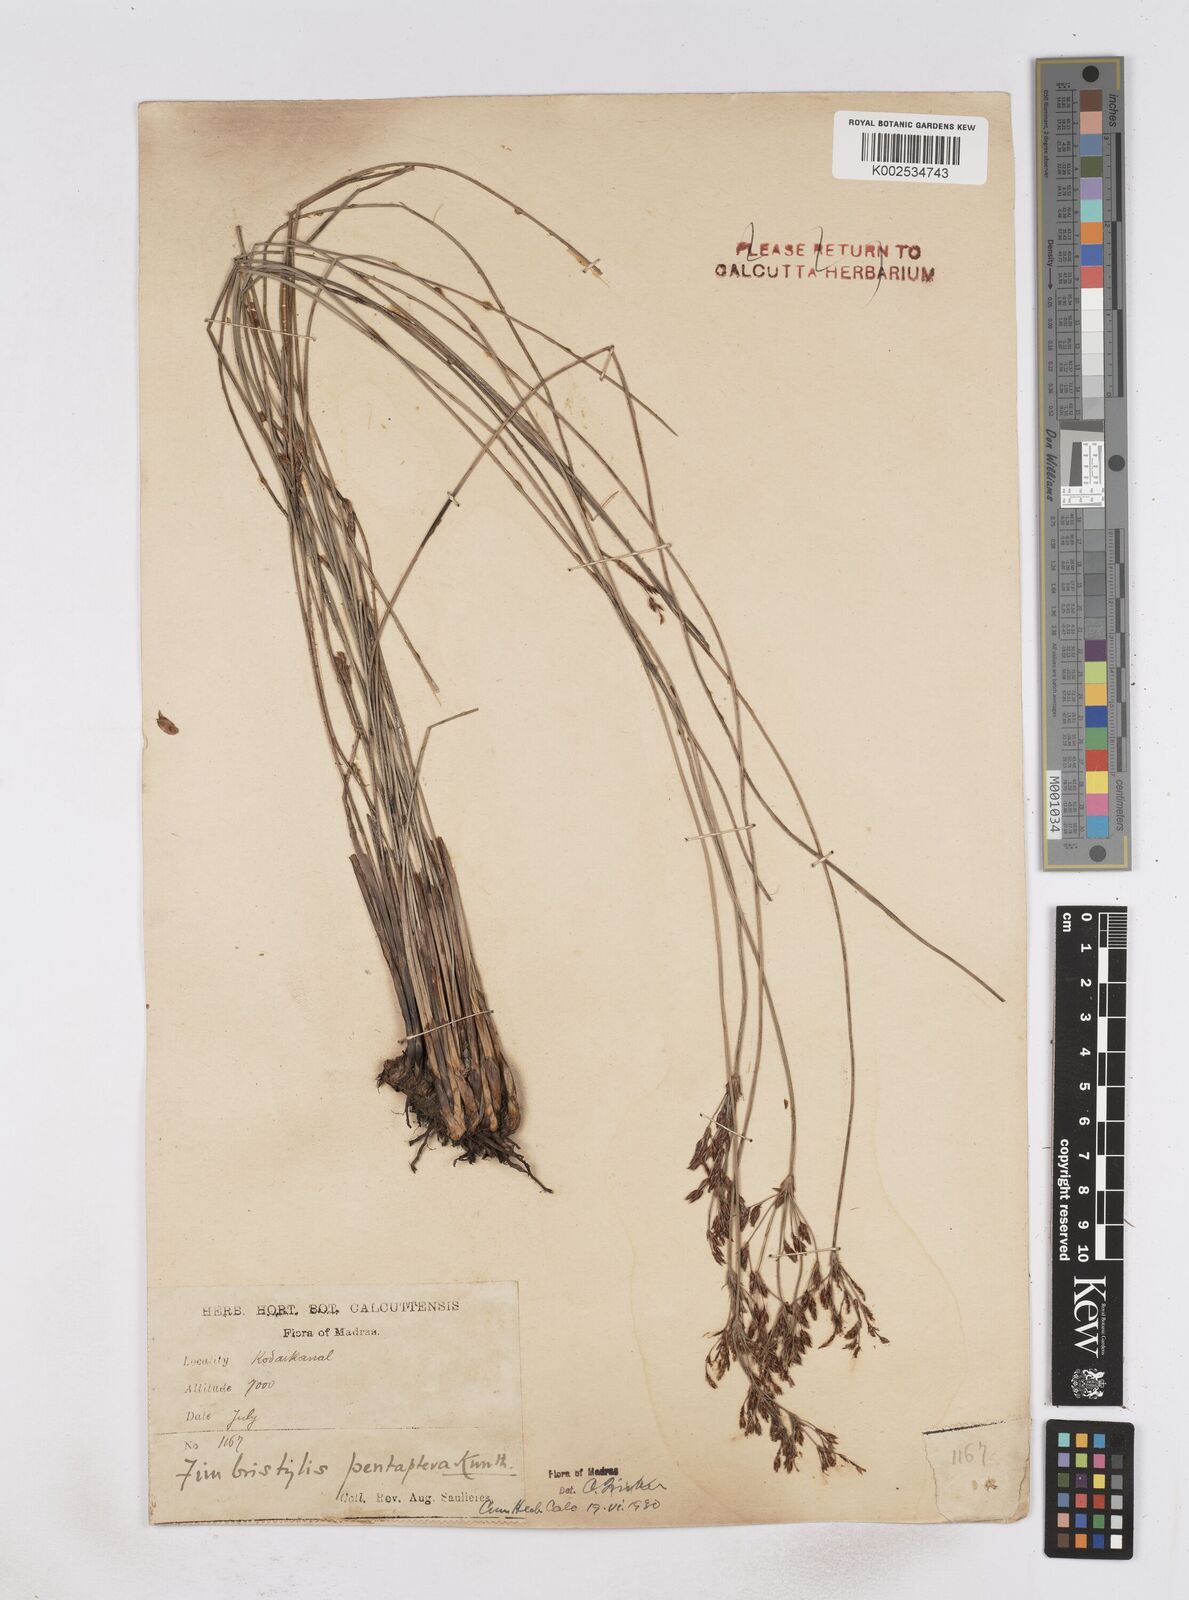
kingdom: Plantae
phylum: Tracheophyta
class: Liliopsida
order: Poales
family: Cyperaceae
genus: Fimbristylis
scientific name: Fimbristylis salbundia
